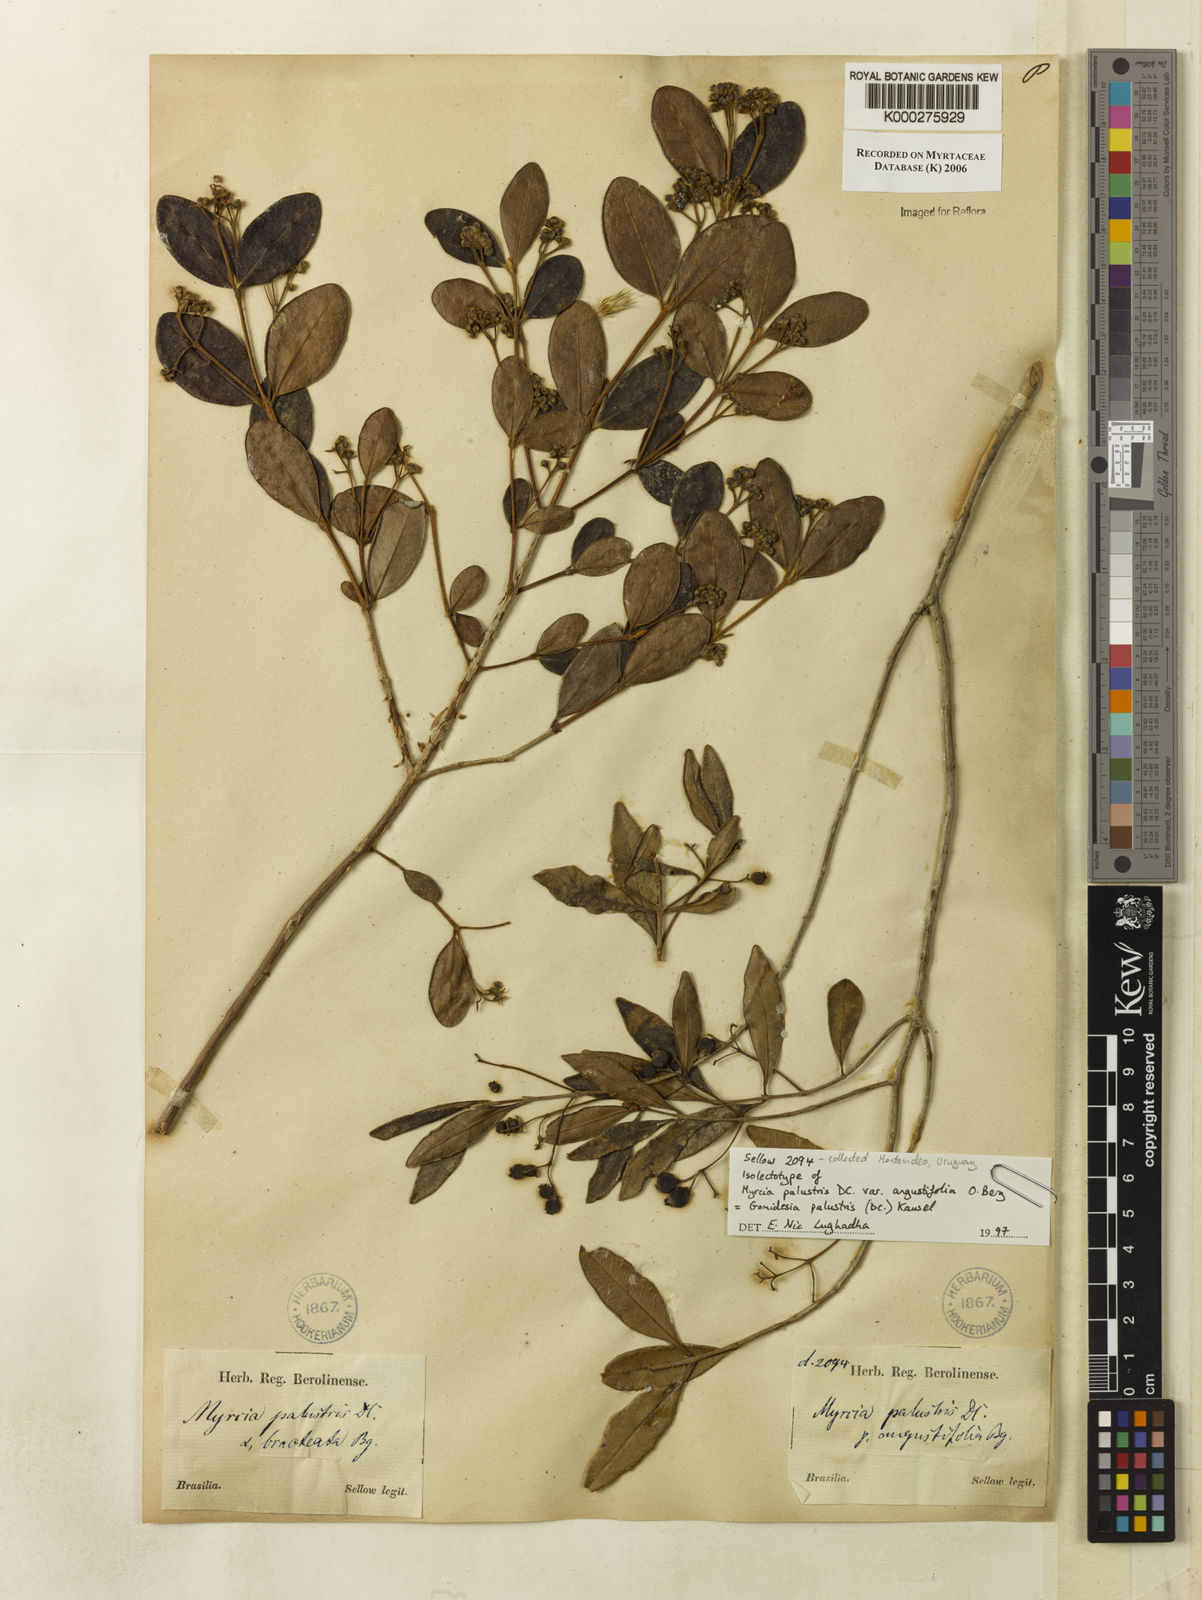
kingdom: Plantae
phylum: Tracheophyta
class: Magnoliopsida
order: Myrtales
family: Myrtaceae
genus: Myrcia
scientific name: Myrcia palustris
